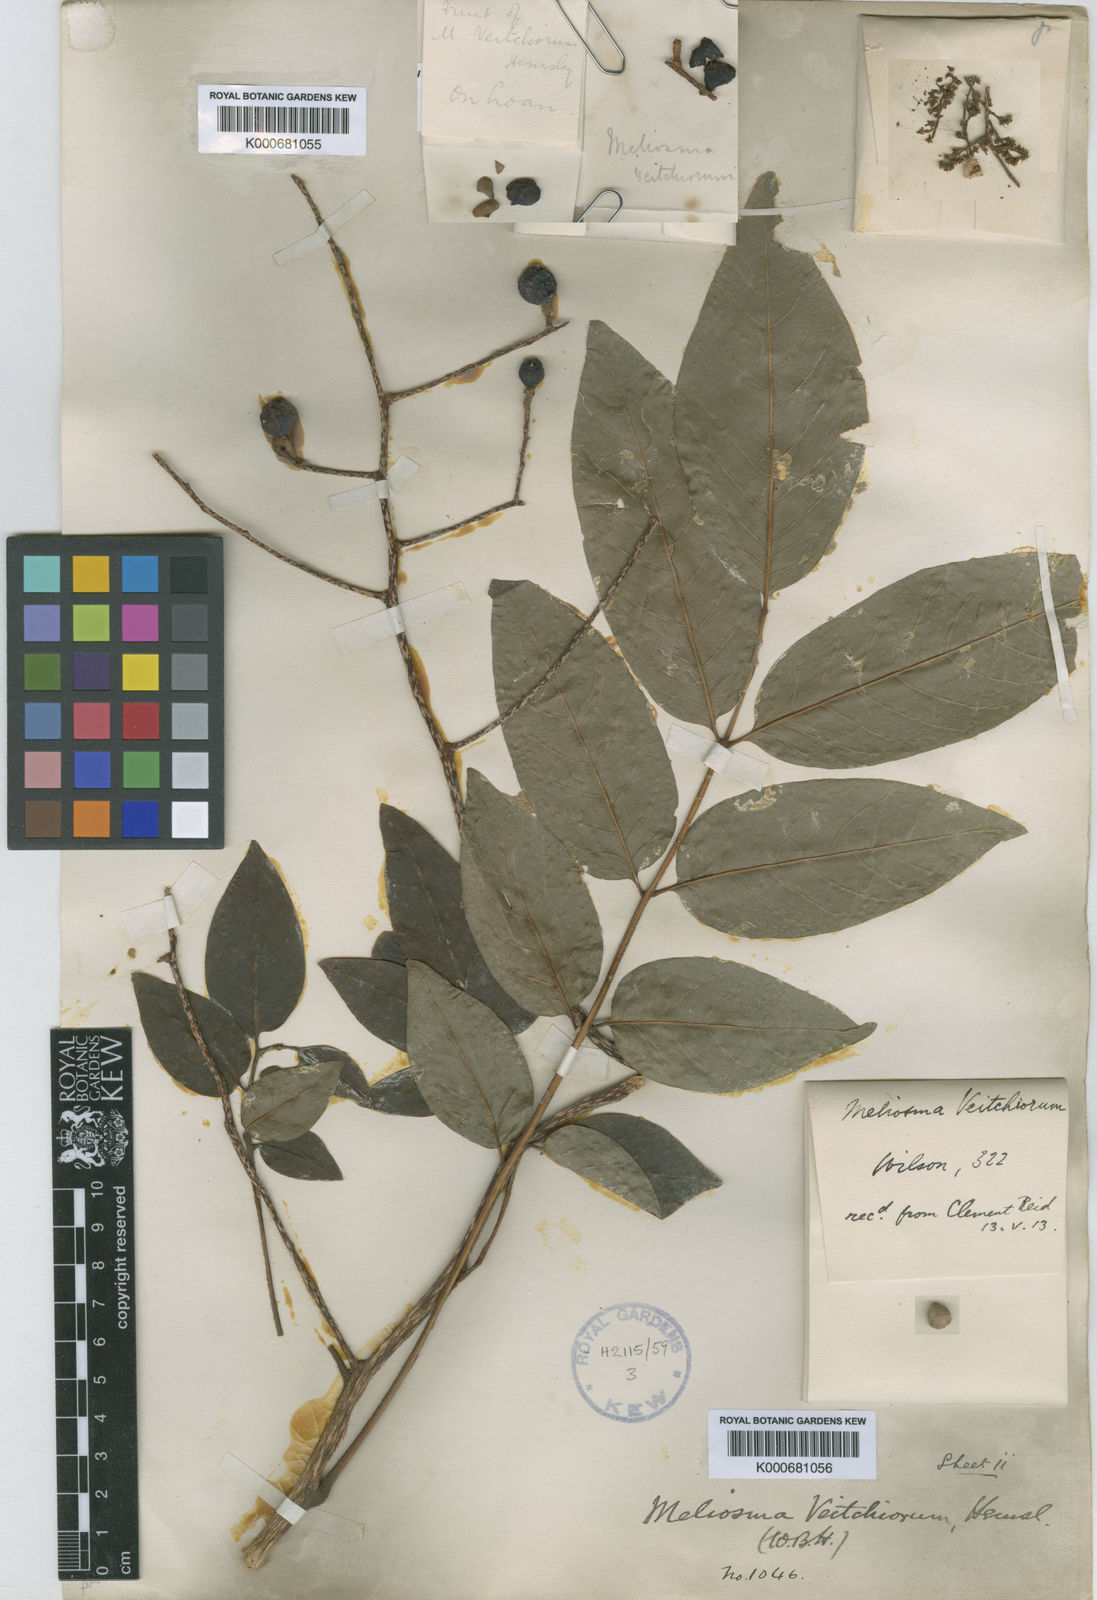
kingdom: Plantae
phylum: Tracheophyta
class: Magnoliopsida
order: Proteales
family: Sabiaceae
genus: Meliosma
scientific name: Meliosma veitchiorum
